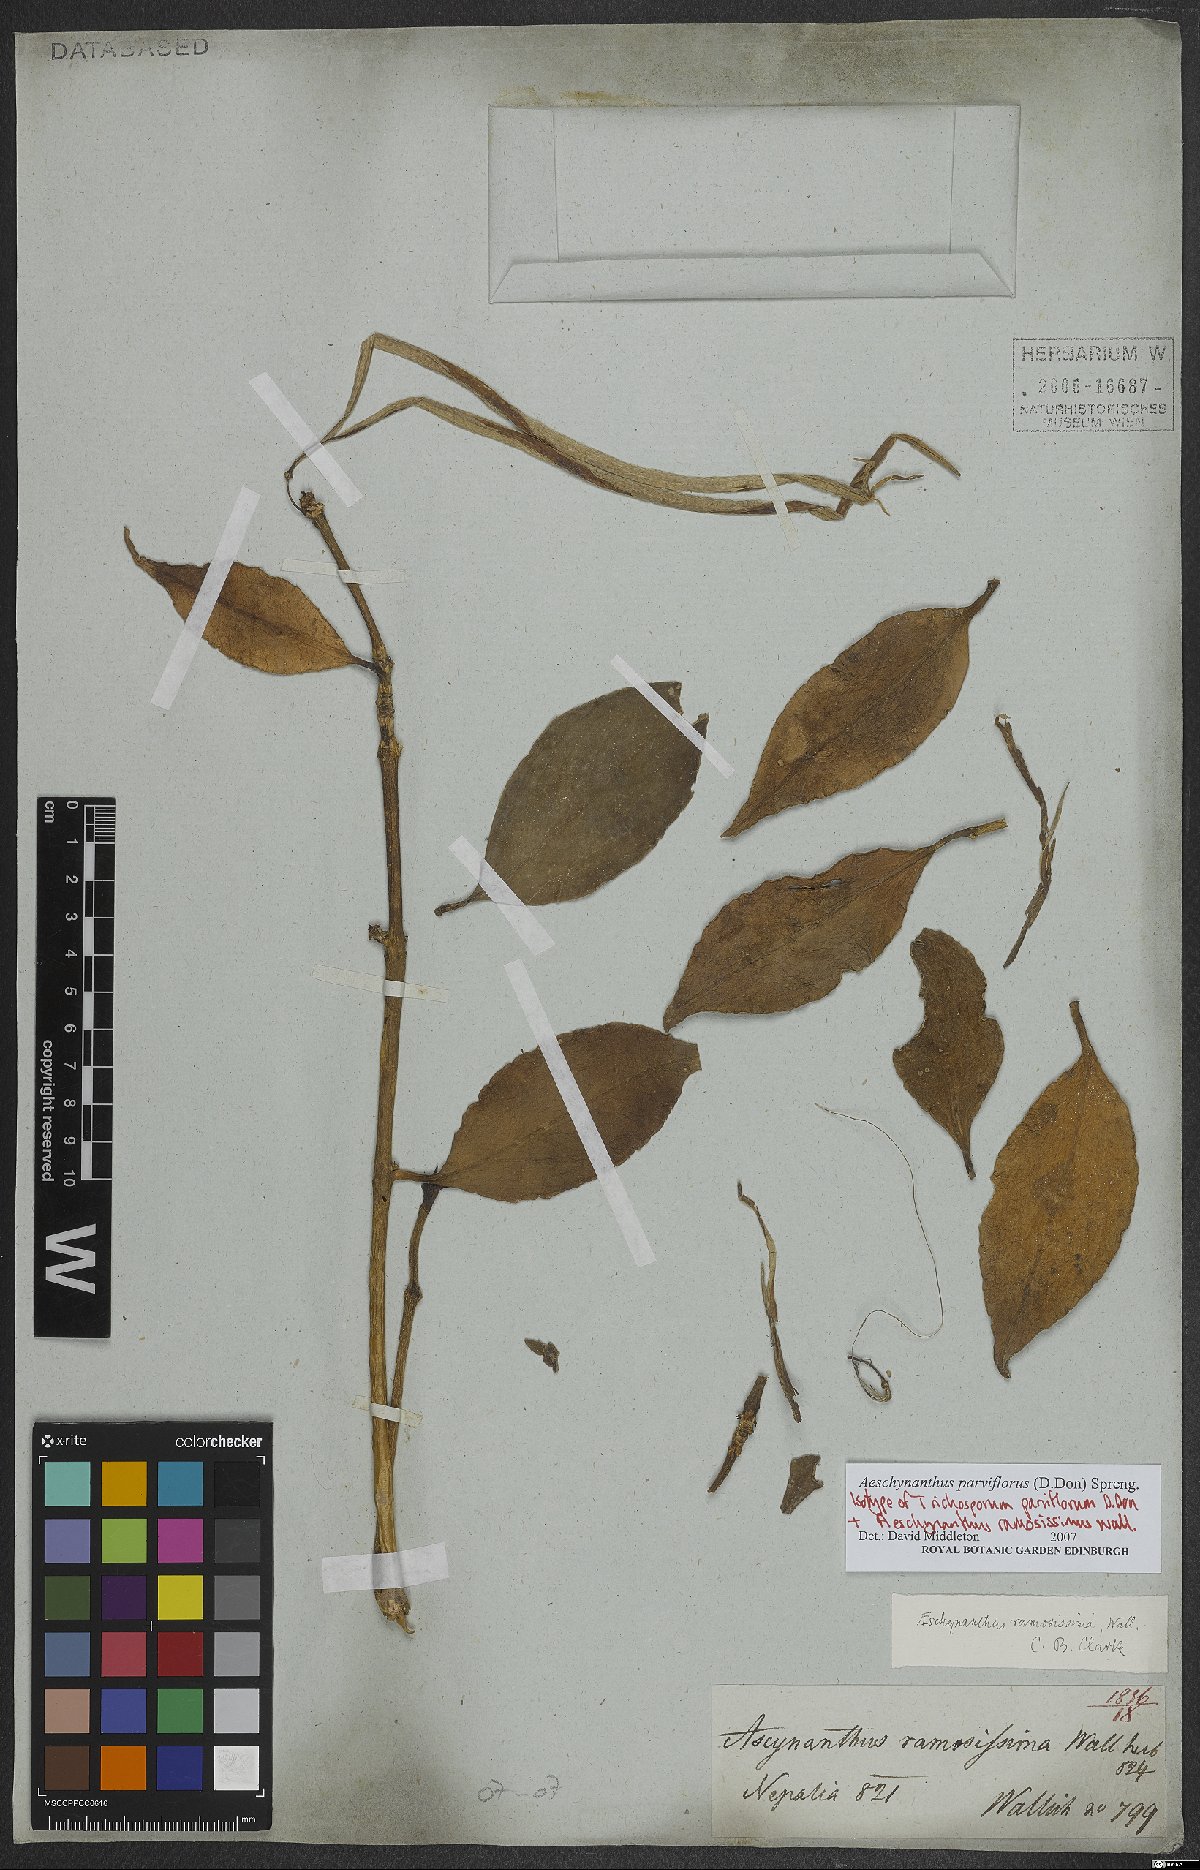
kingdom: Plantae
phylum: Tracheophyta
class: Magnoliopsida
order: Lamiales
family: Gesneriaceae
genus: Aeschynanthus
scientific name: Aeschynanthus parviflorus
